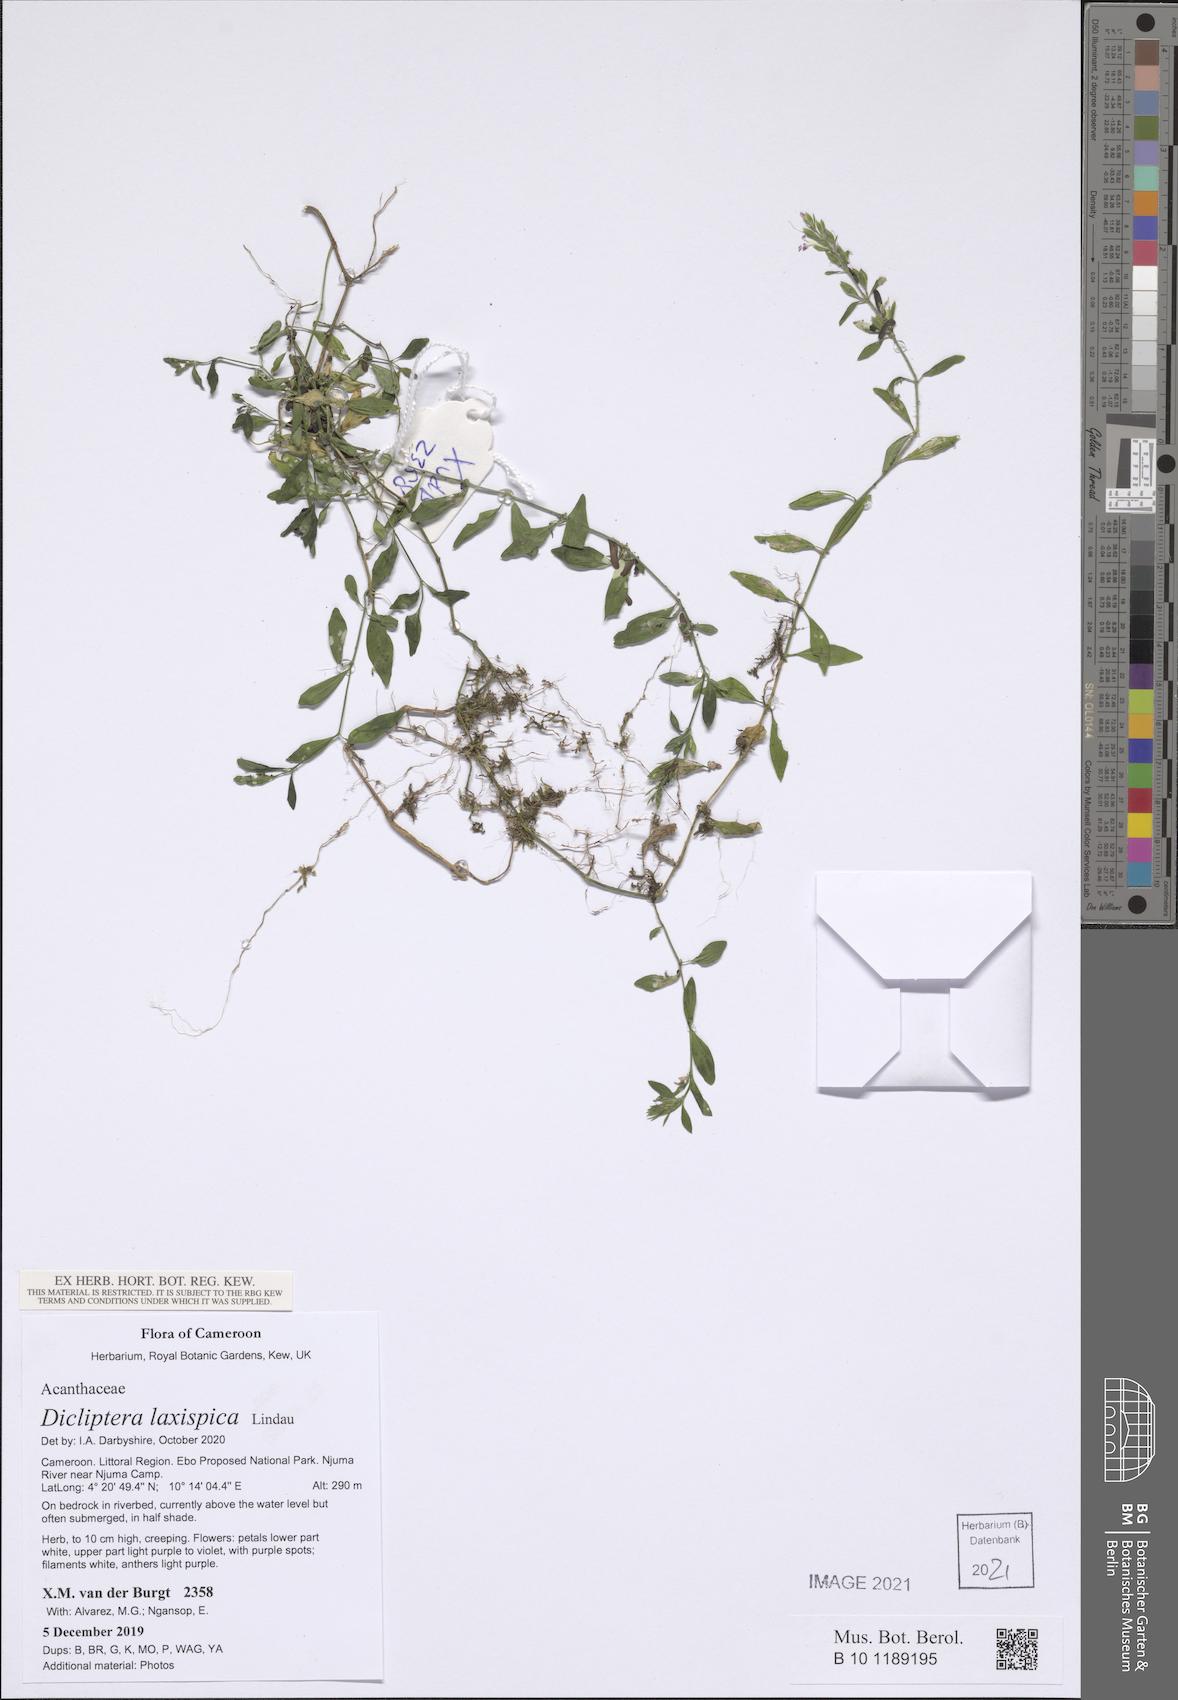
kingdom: Plantae
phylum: Tracheophyta
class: Magnoliopsida
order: Lamiales
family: Acanthaceae
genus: Dicliptera
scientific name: Dicliptera laxispica
